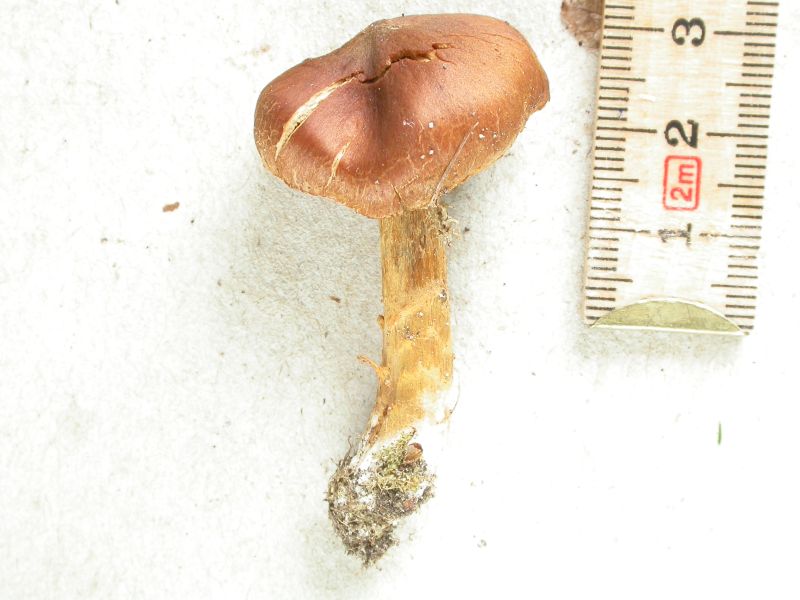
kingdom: Fungi
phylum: Basidiomycota
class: Agaricomycetes
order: Agaricales
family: Cortinariaceae
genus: Cortinarius
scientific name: Cortinarius saniosus
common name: gultrævlet slørhat
